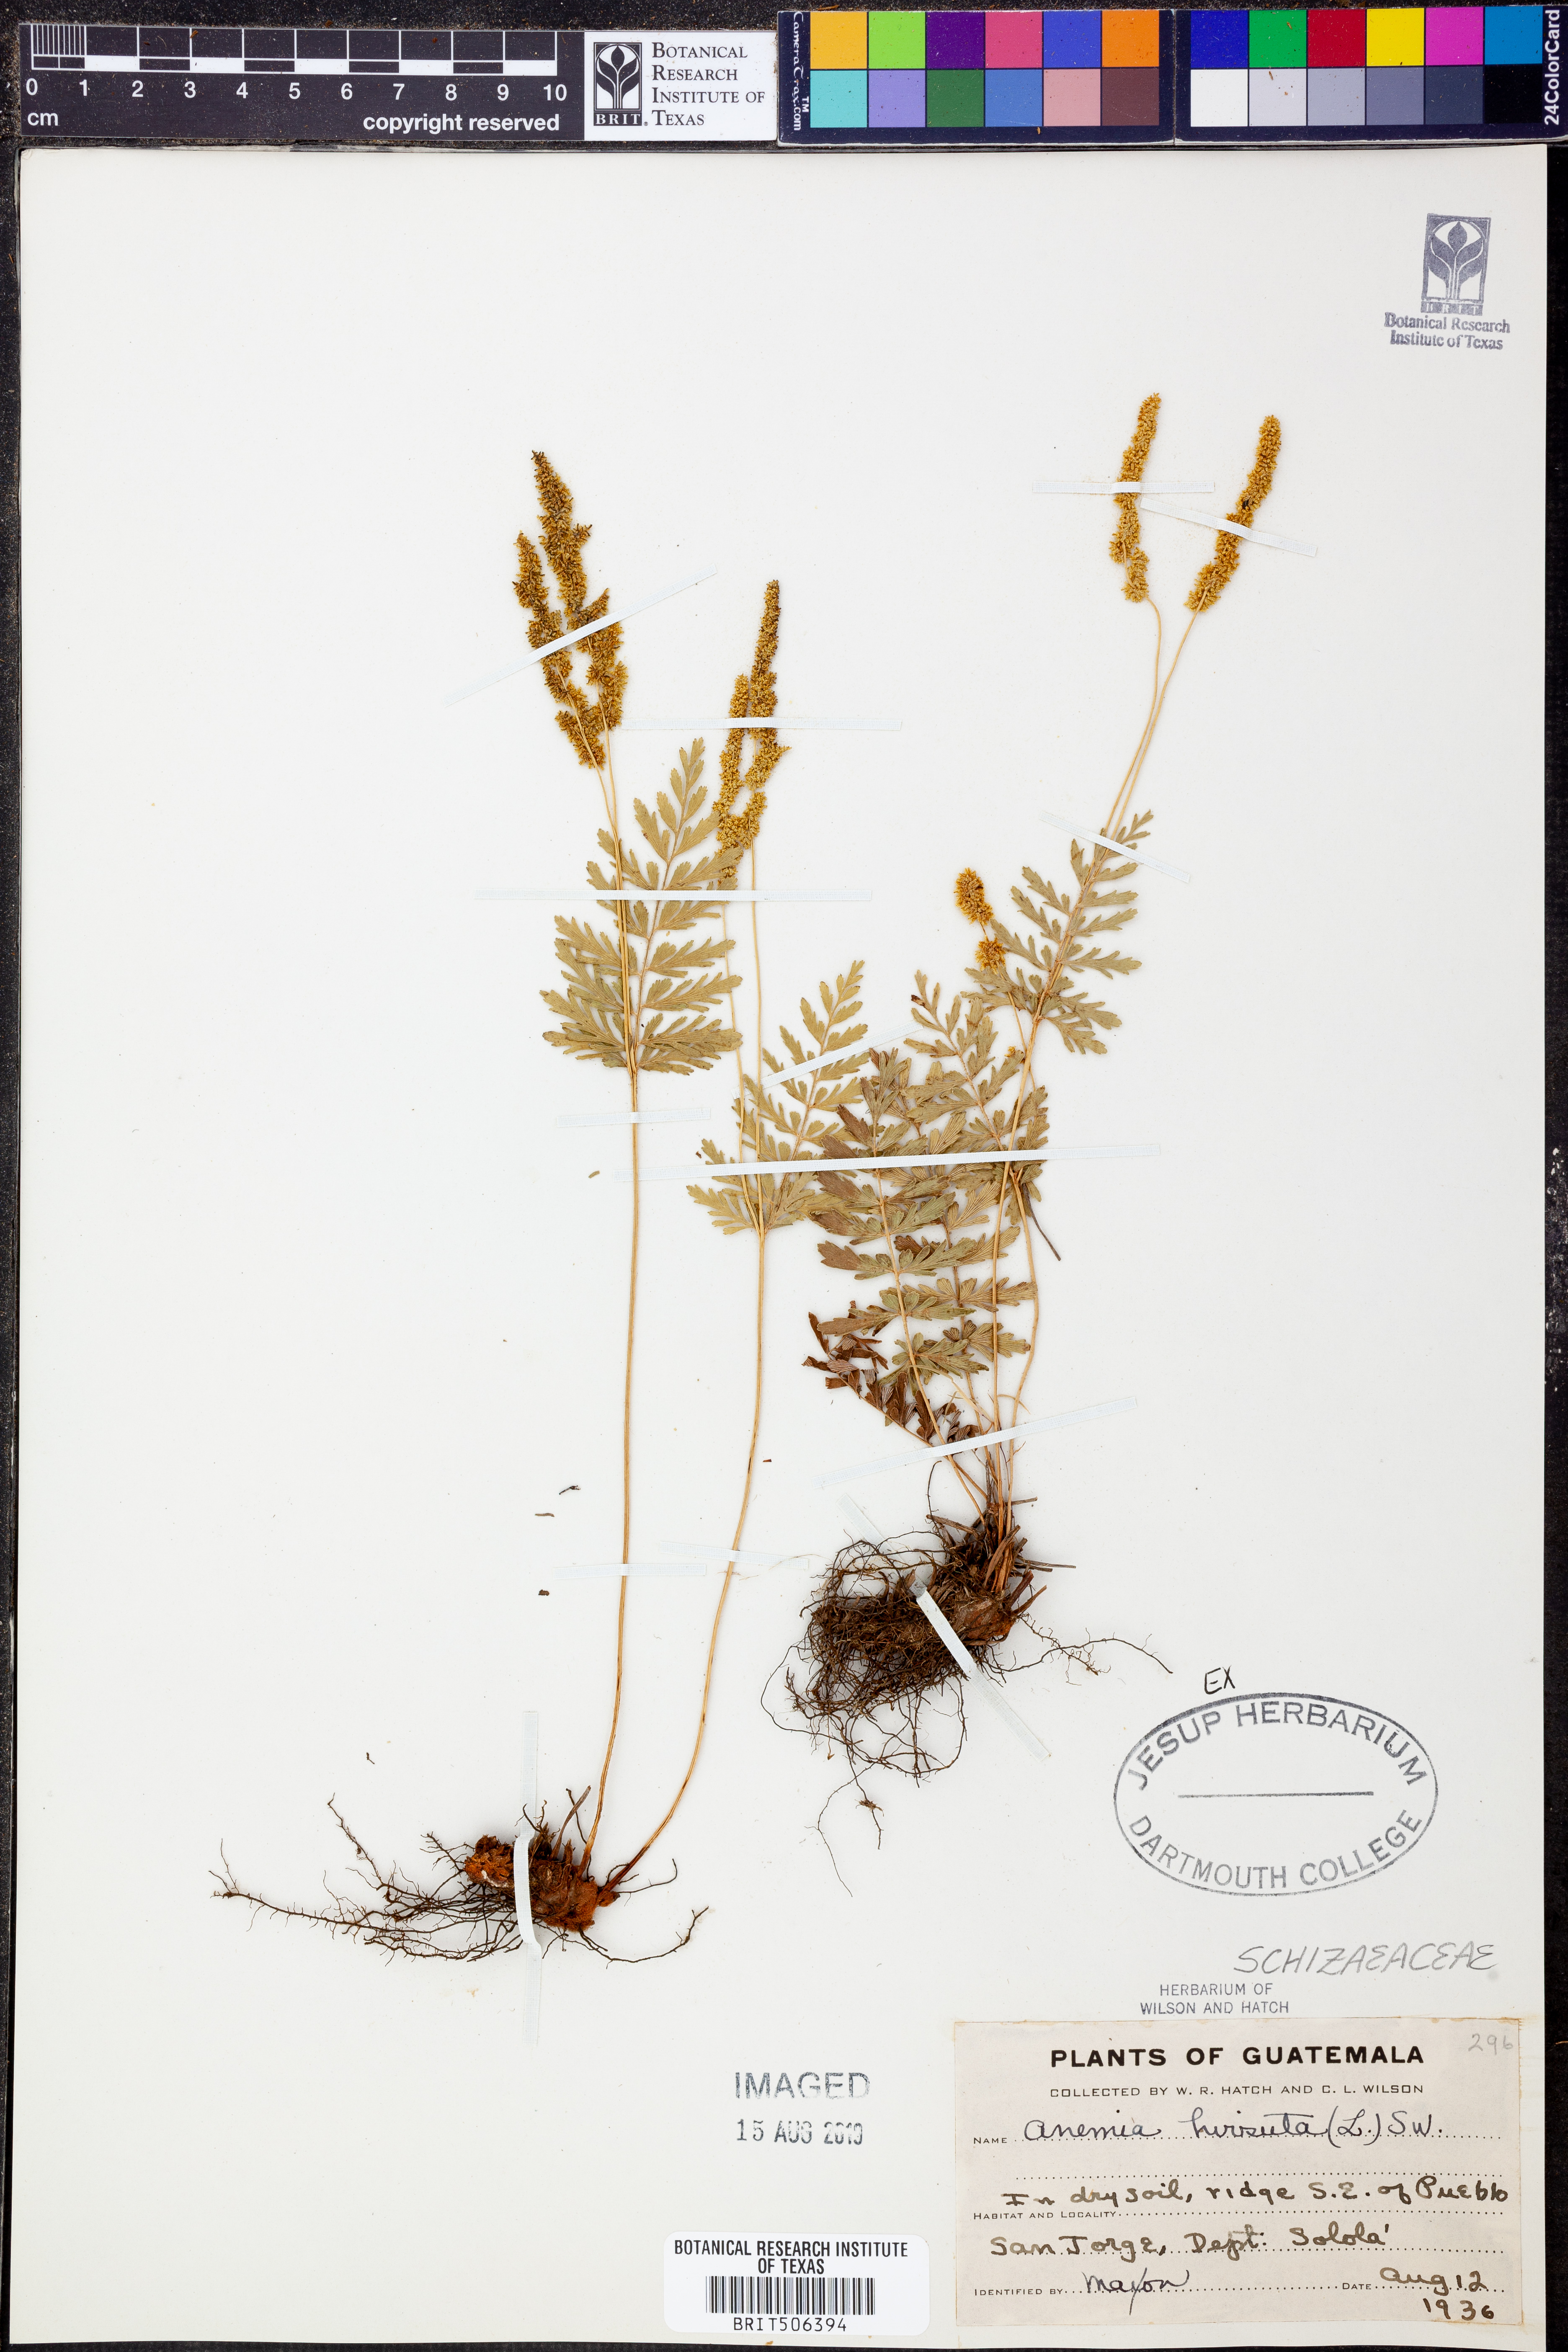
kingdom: Plantae
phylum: Tracheophyta
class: Polypodiopsida
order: Schizaeales
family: Anemiaceae
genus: Anemia
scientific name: Anemia hirsuta
